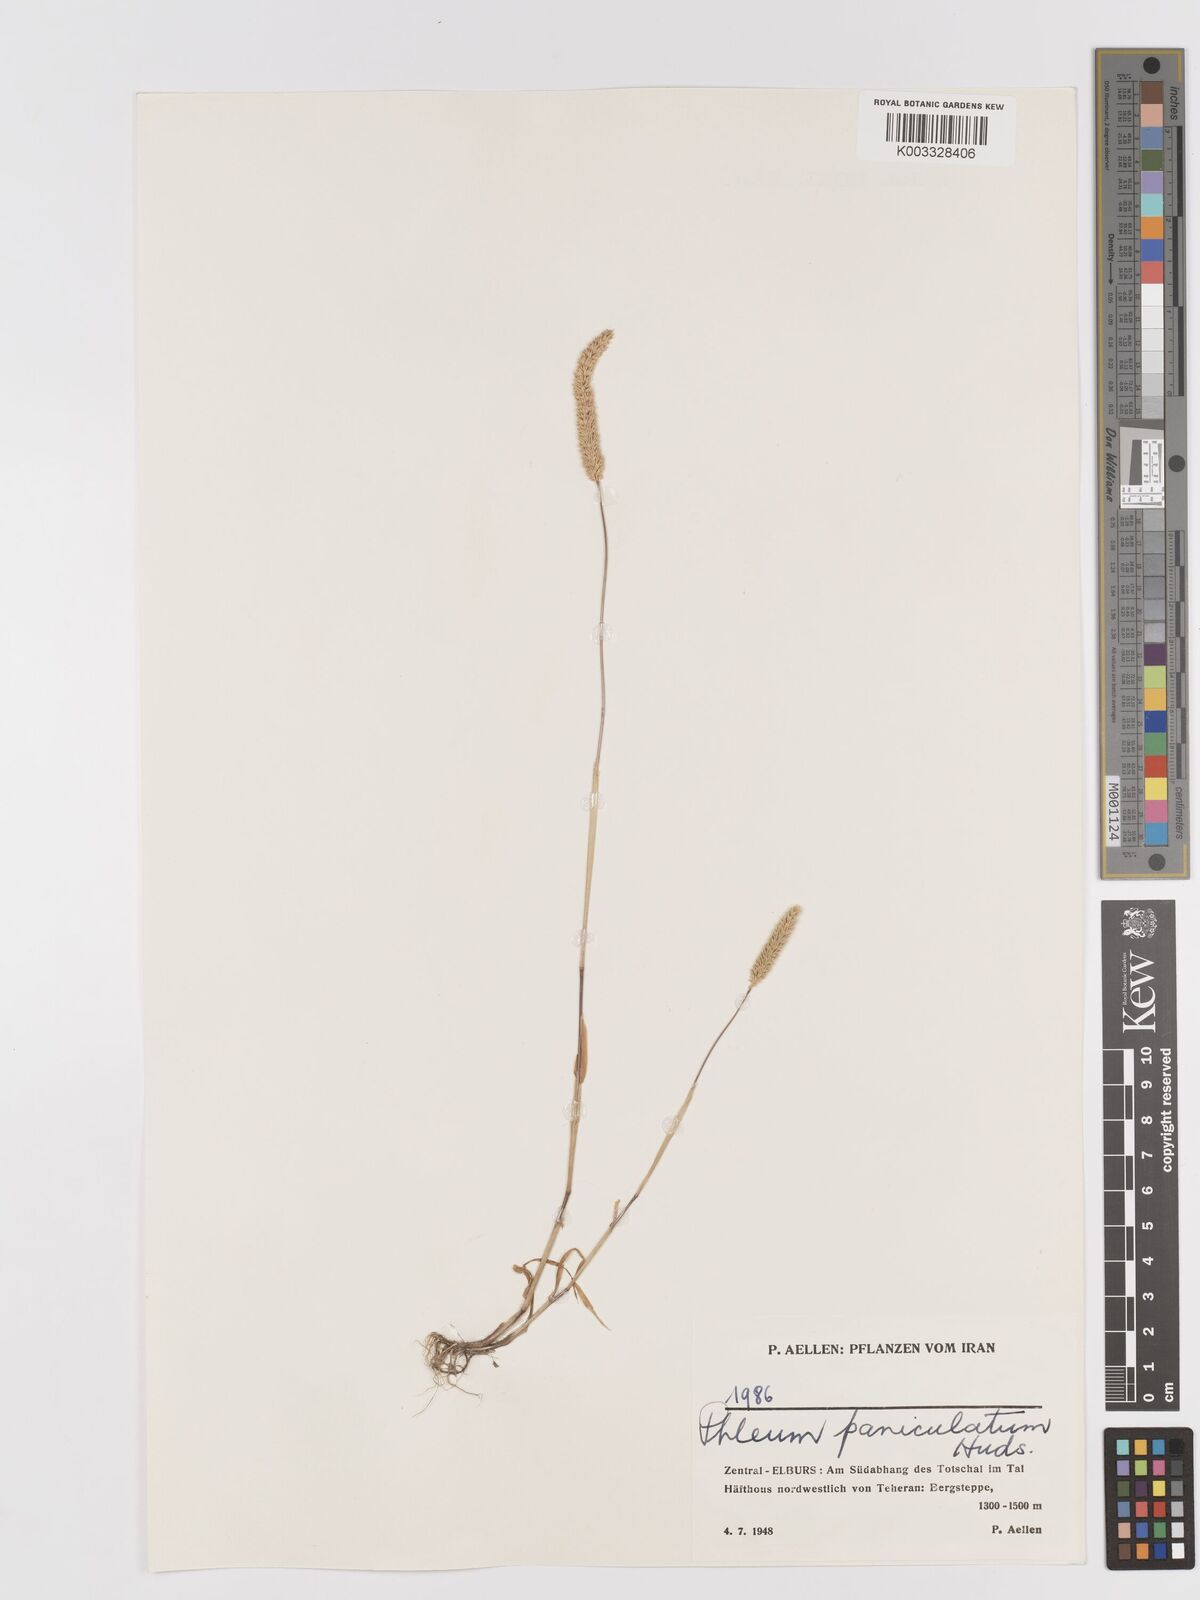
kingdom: Plantae
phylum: Tracheophyta
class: Liliopsida
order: Poales
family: Poaceae
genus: Phleum
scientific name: Phleum paniculatum
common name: British timothy
